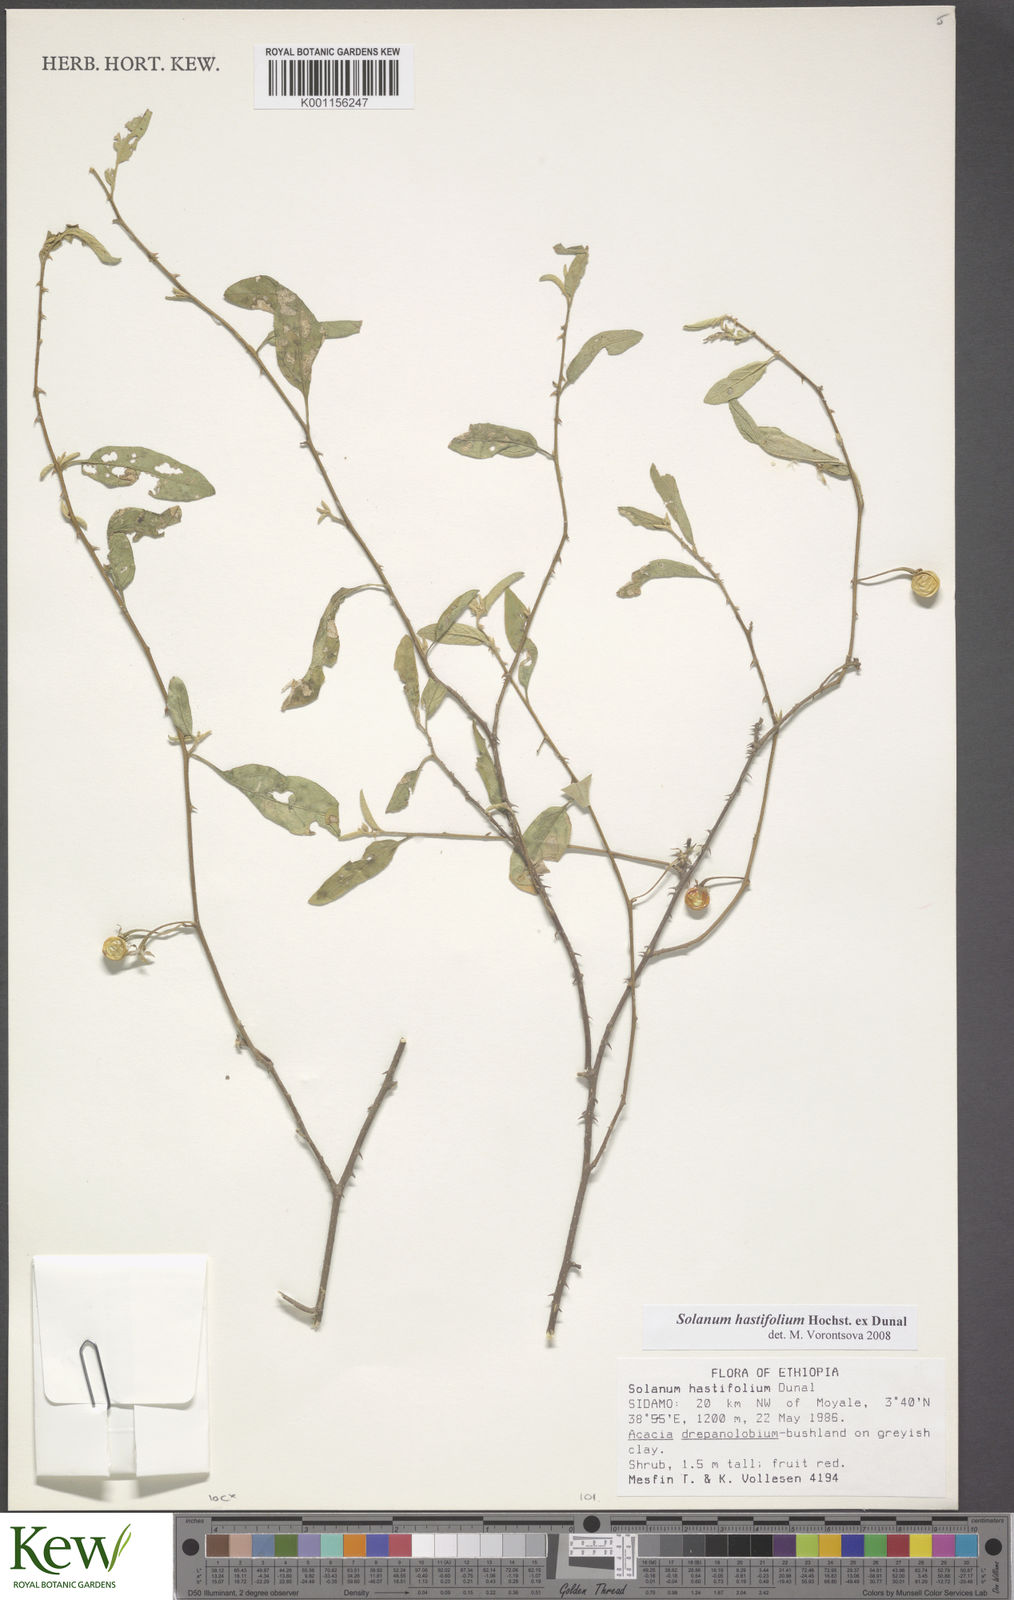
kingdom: Plantae
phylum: Tracheophyta
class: Magnoliopsida
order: Solanales
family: Solanaceae
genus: Solanum
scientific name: Solanum hastifolium
